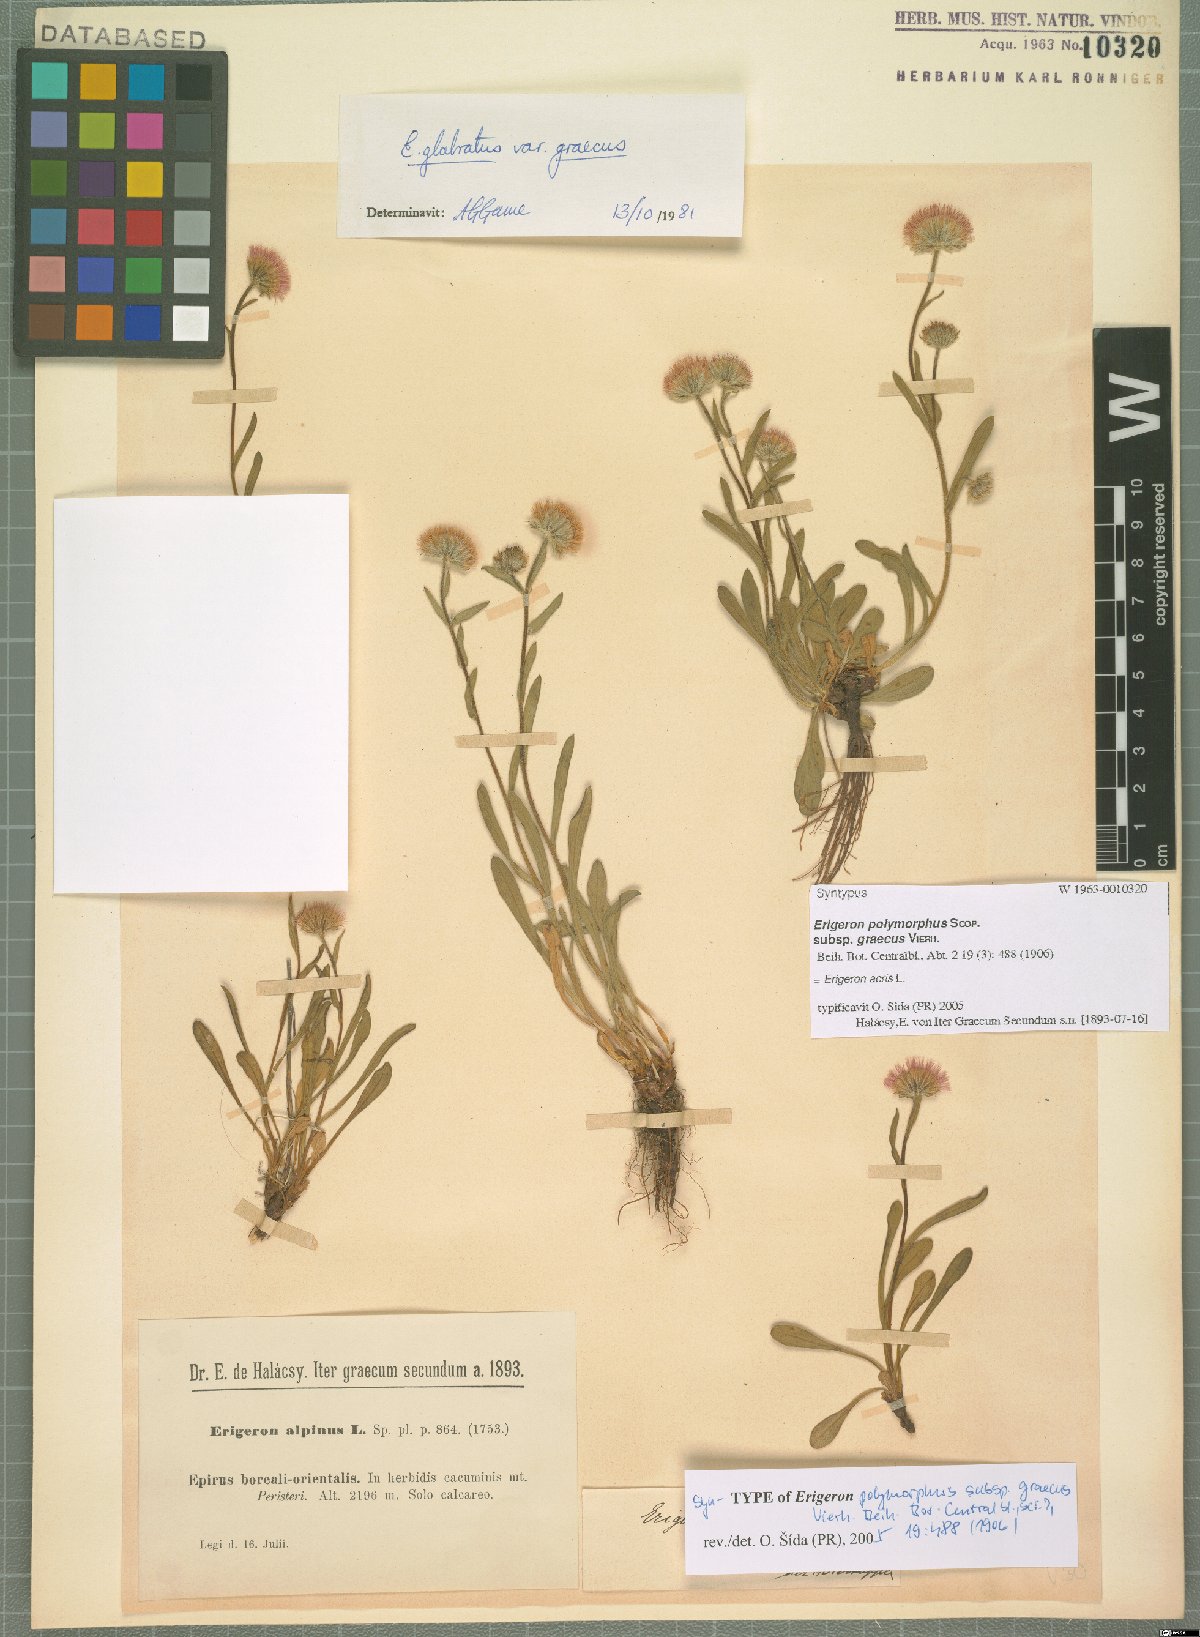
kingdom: Plantae
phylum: Tracheophyta
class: Magnoliopsida
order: Asterales
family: Asteraceae
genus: Erigeron
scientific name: Erigeron acris
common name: Blue fleabane
